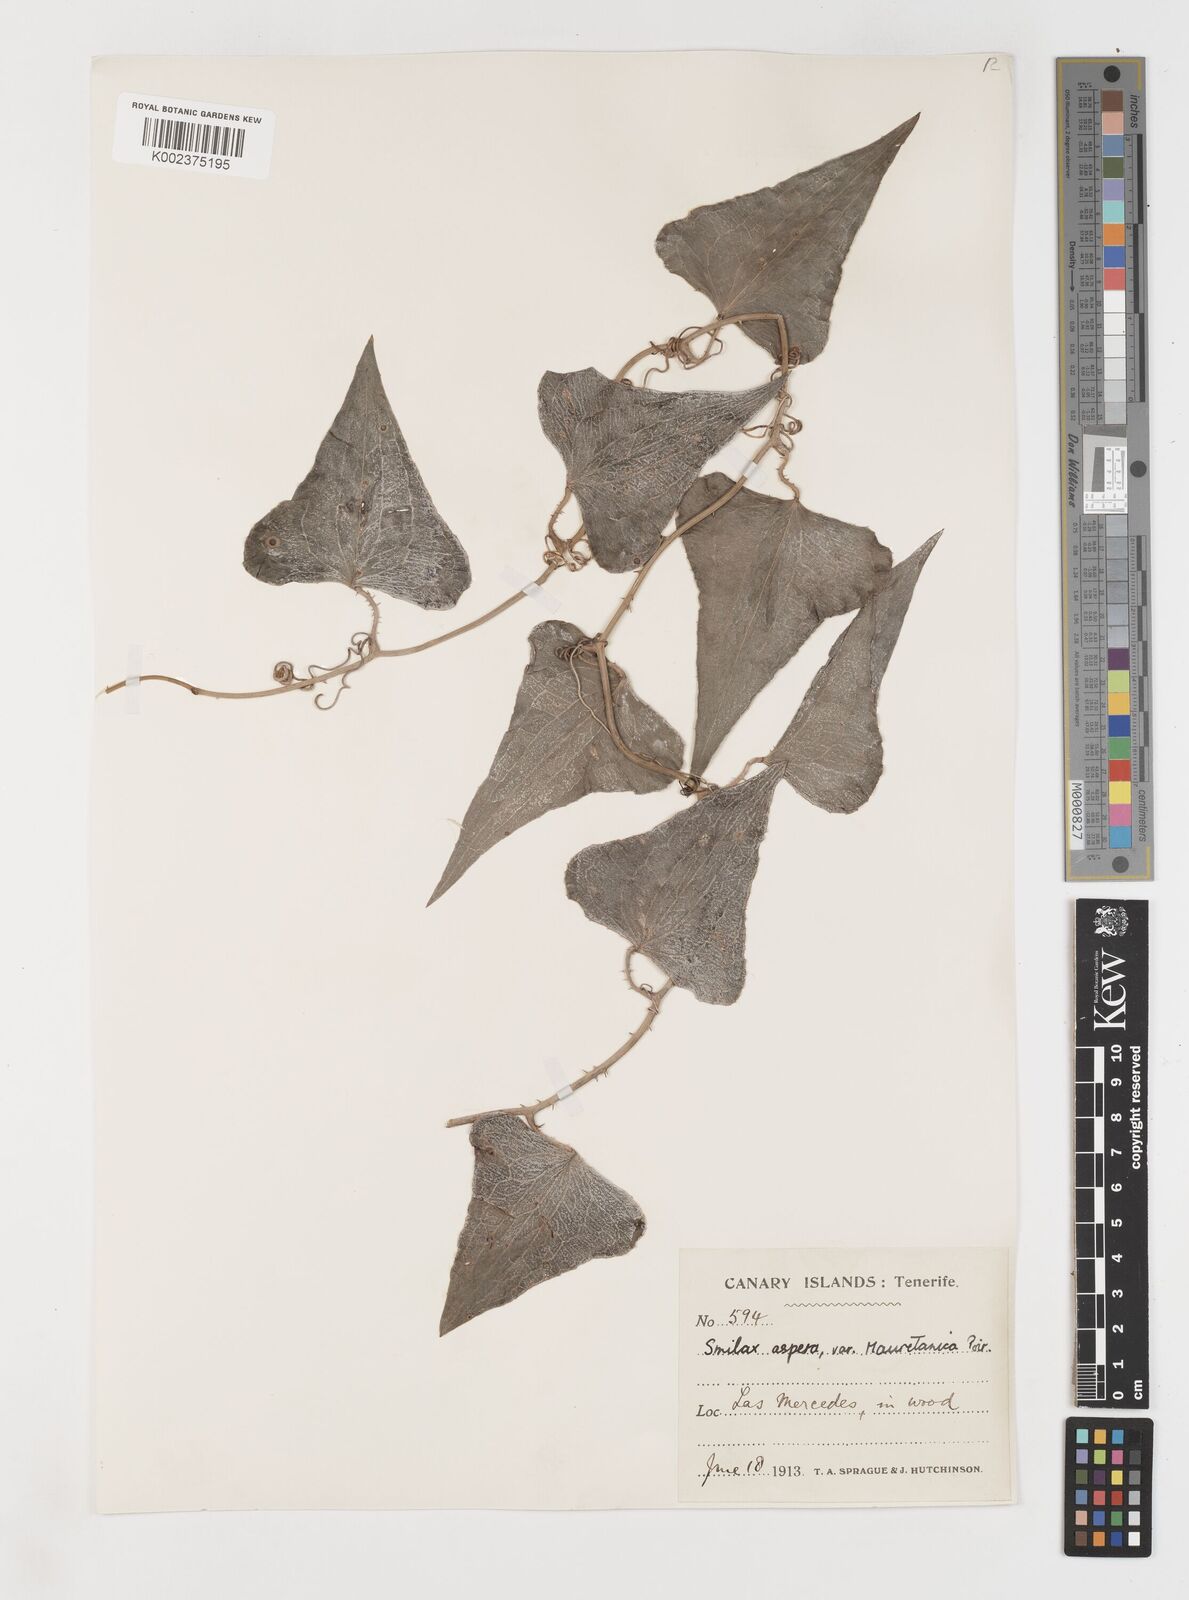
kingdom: Plantae
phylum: Tracheophyta
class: Liliopsida
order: Liliales
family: Smilacaceae
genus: Smilax
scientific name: Smilax aspera
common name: Common smilax
